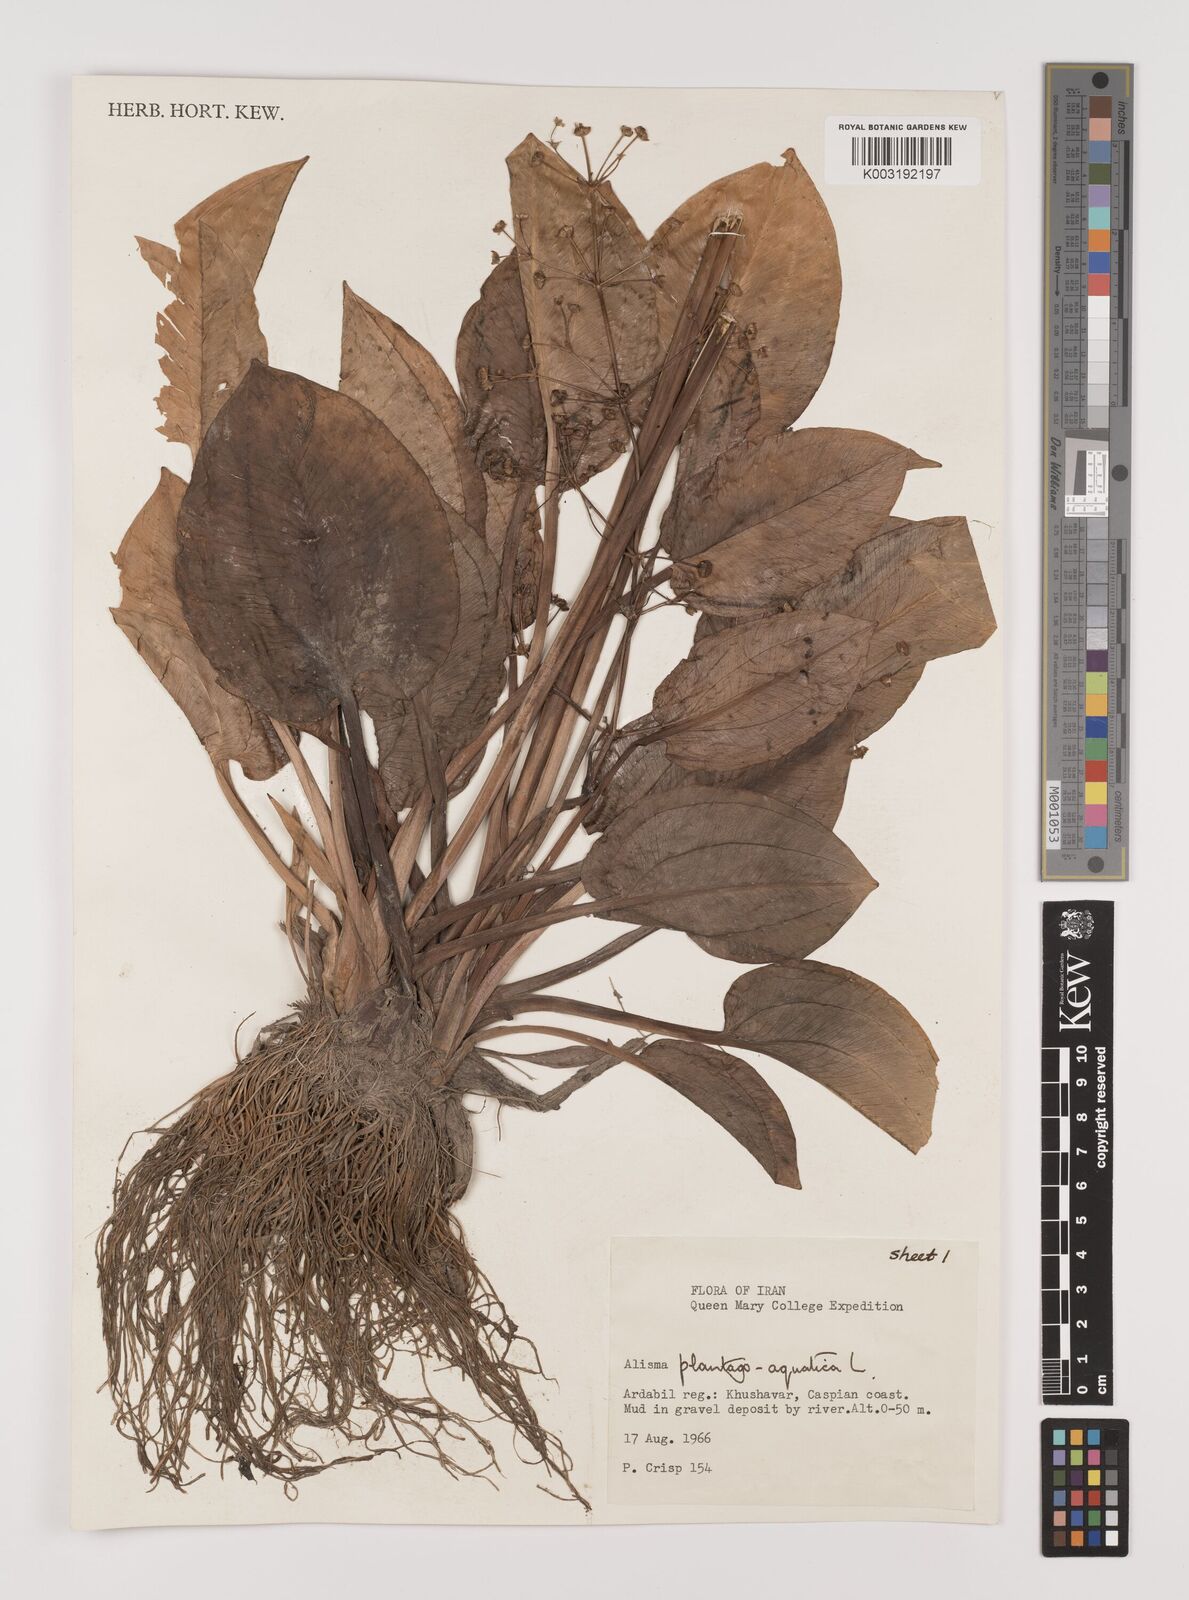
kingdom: Plantae
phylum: Tracheophyta
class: Liliopsida
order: Alismatales
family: Alismataceae
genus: Alisma
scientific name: Alisma plantago-aquatica
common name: Water-plantain
